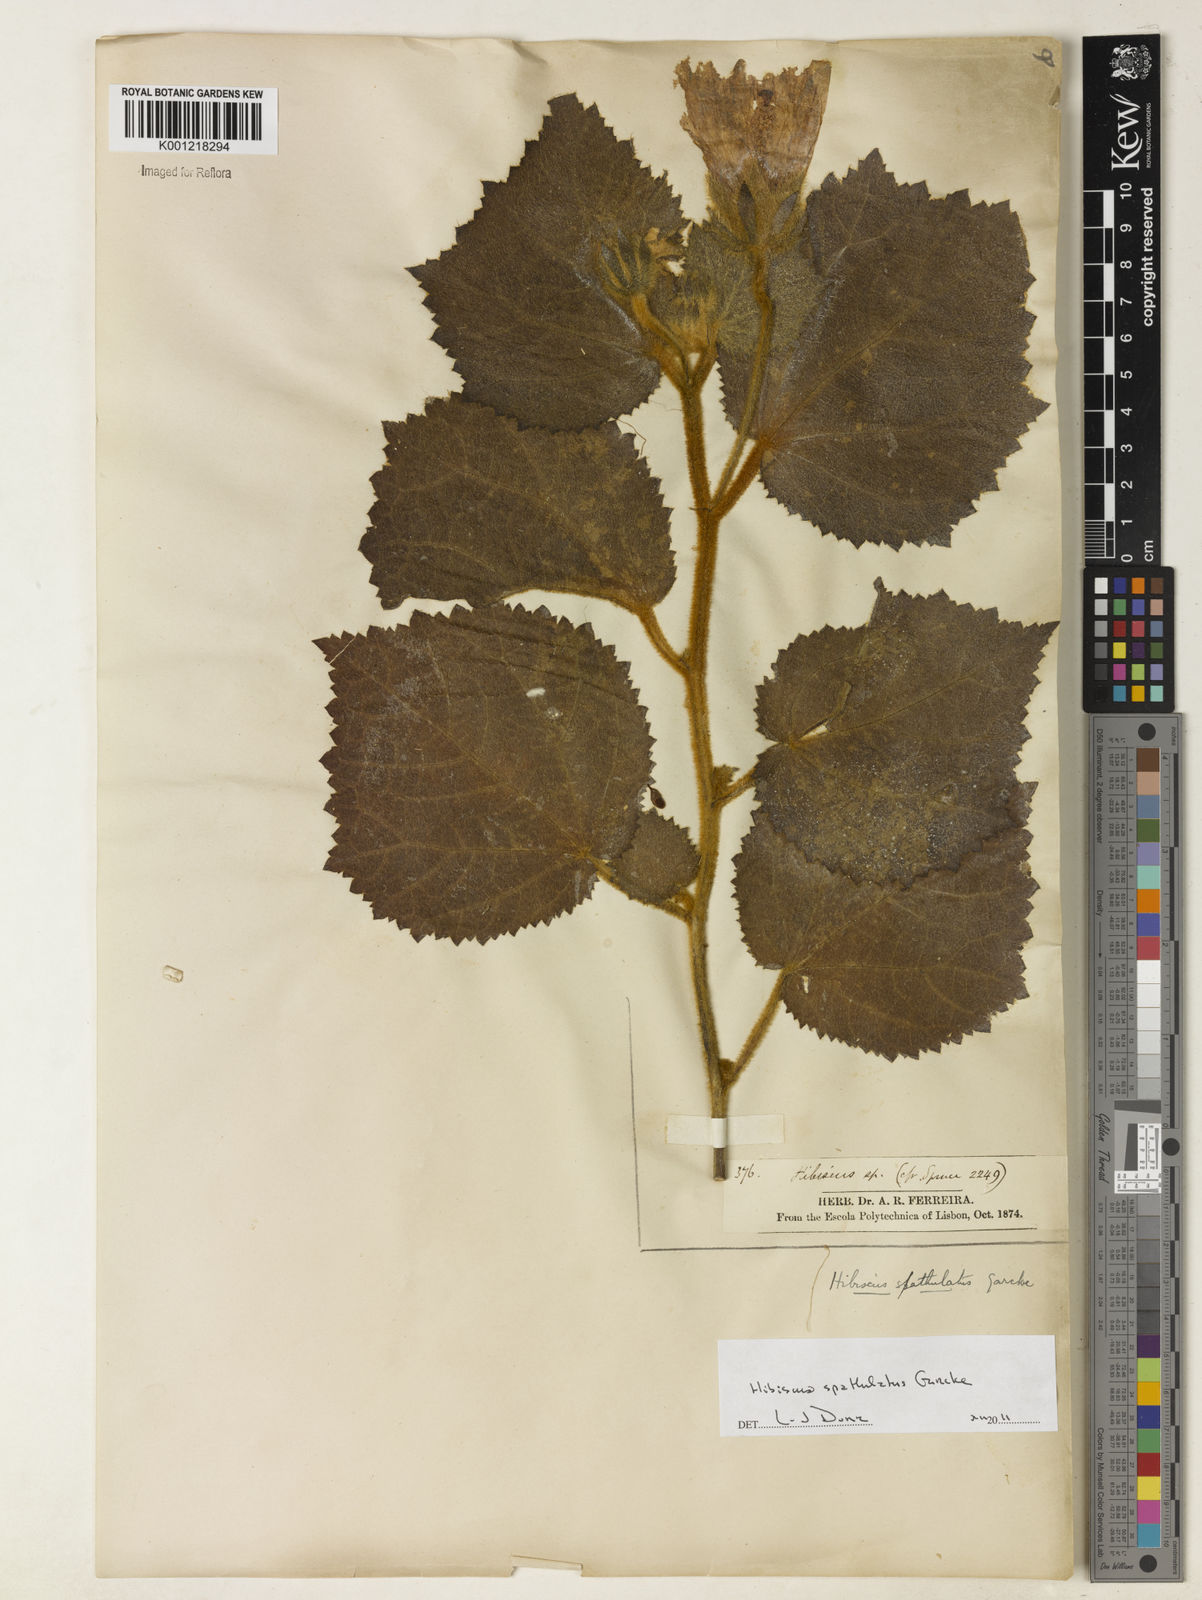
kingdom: Plantae
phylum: Tracheophyta
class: Magnoliopsida
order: Malvales
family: Malvaceae
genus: Hibiscus
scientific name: Hibiscus verbasciformis
